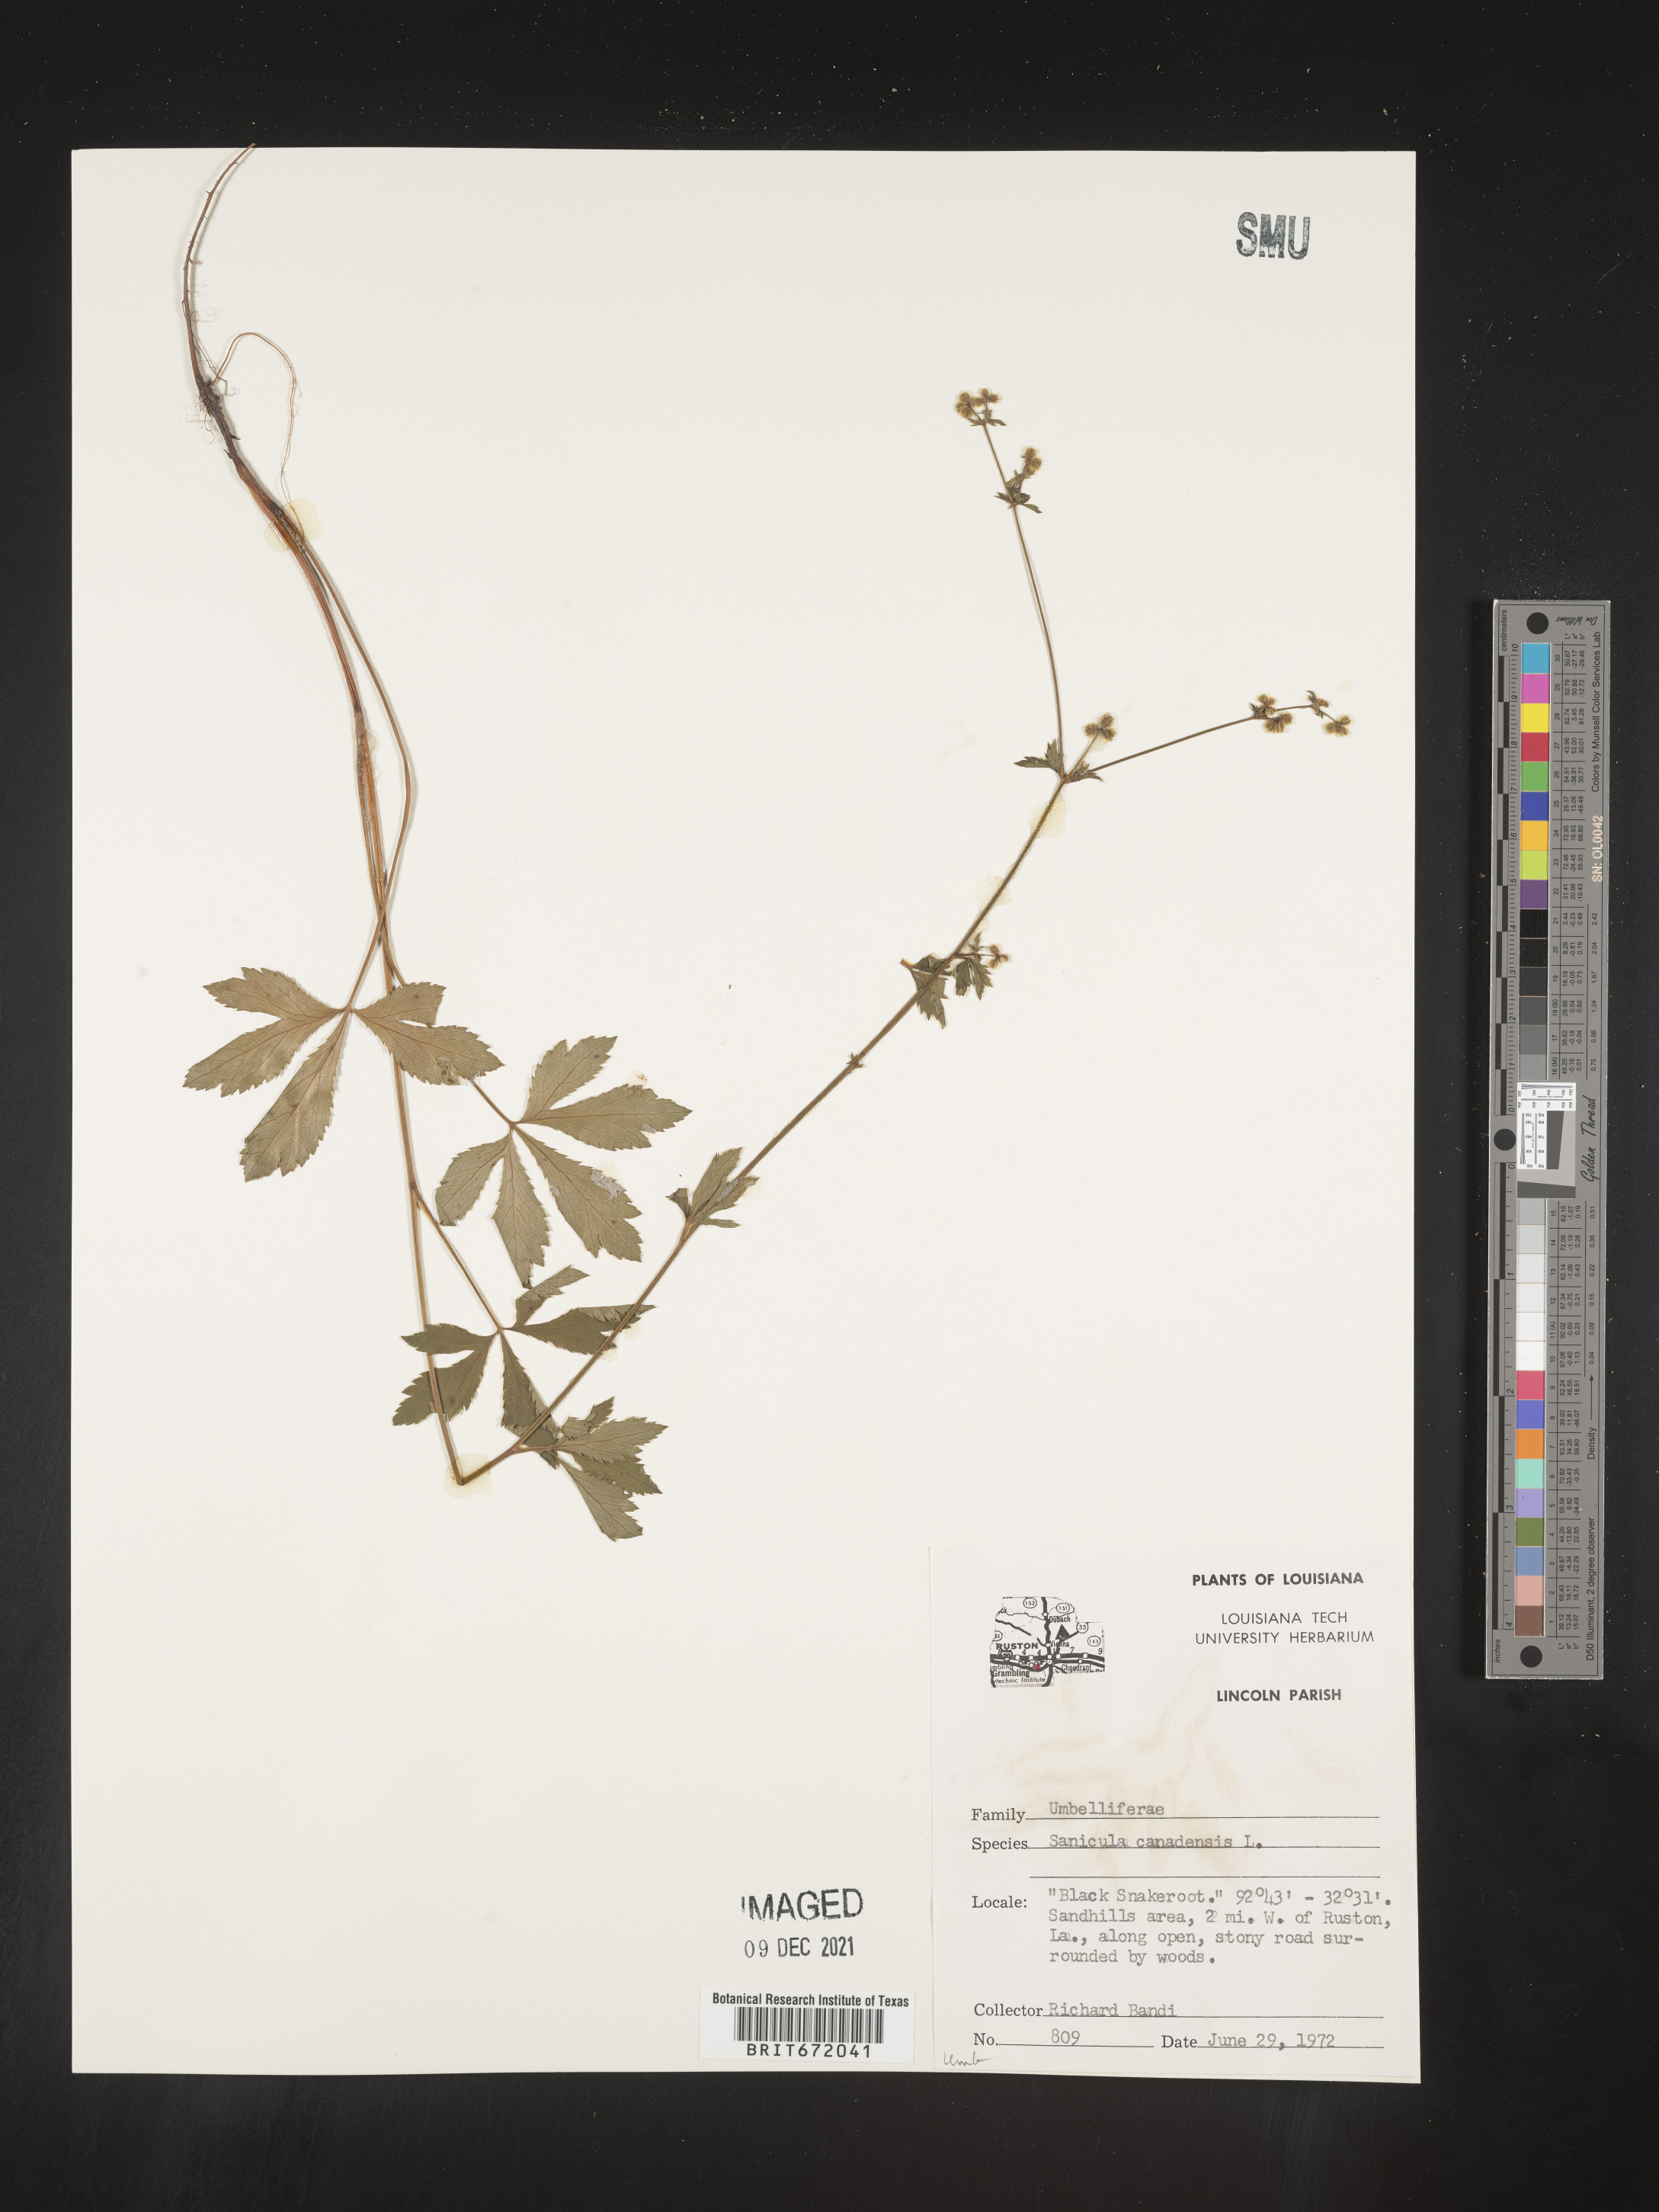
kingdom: Plantae
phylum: Tracheophyta
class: Magnoliopsida
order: Apiales
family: Apiaceae
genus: Sanicula
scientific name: Sanicula canadensis
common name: Canada sanicle
